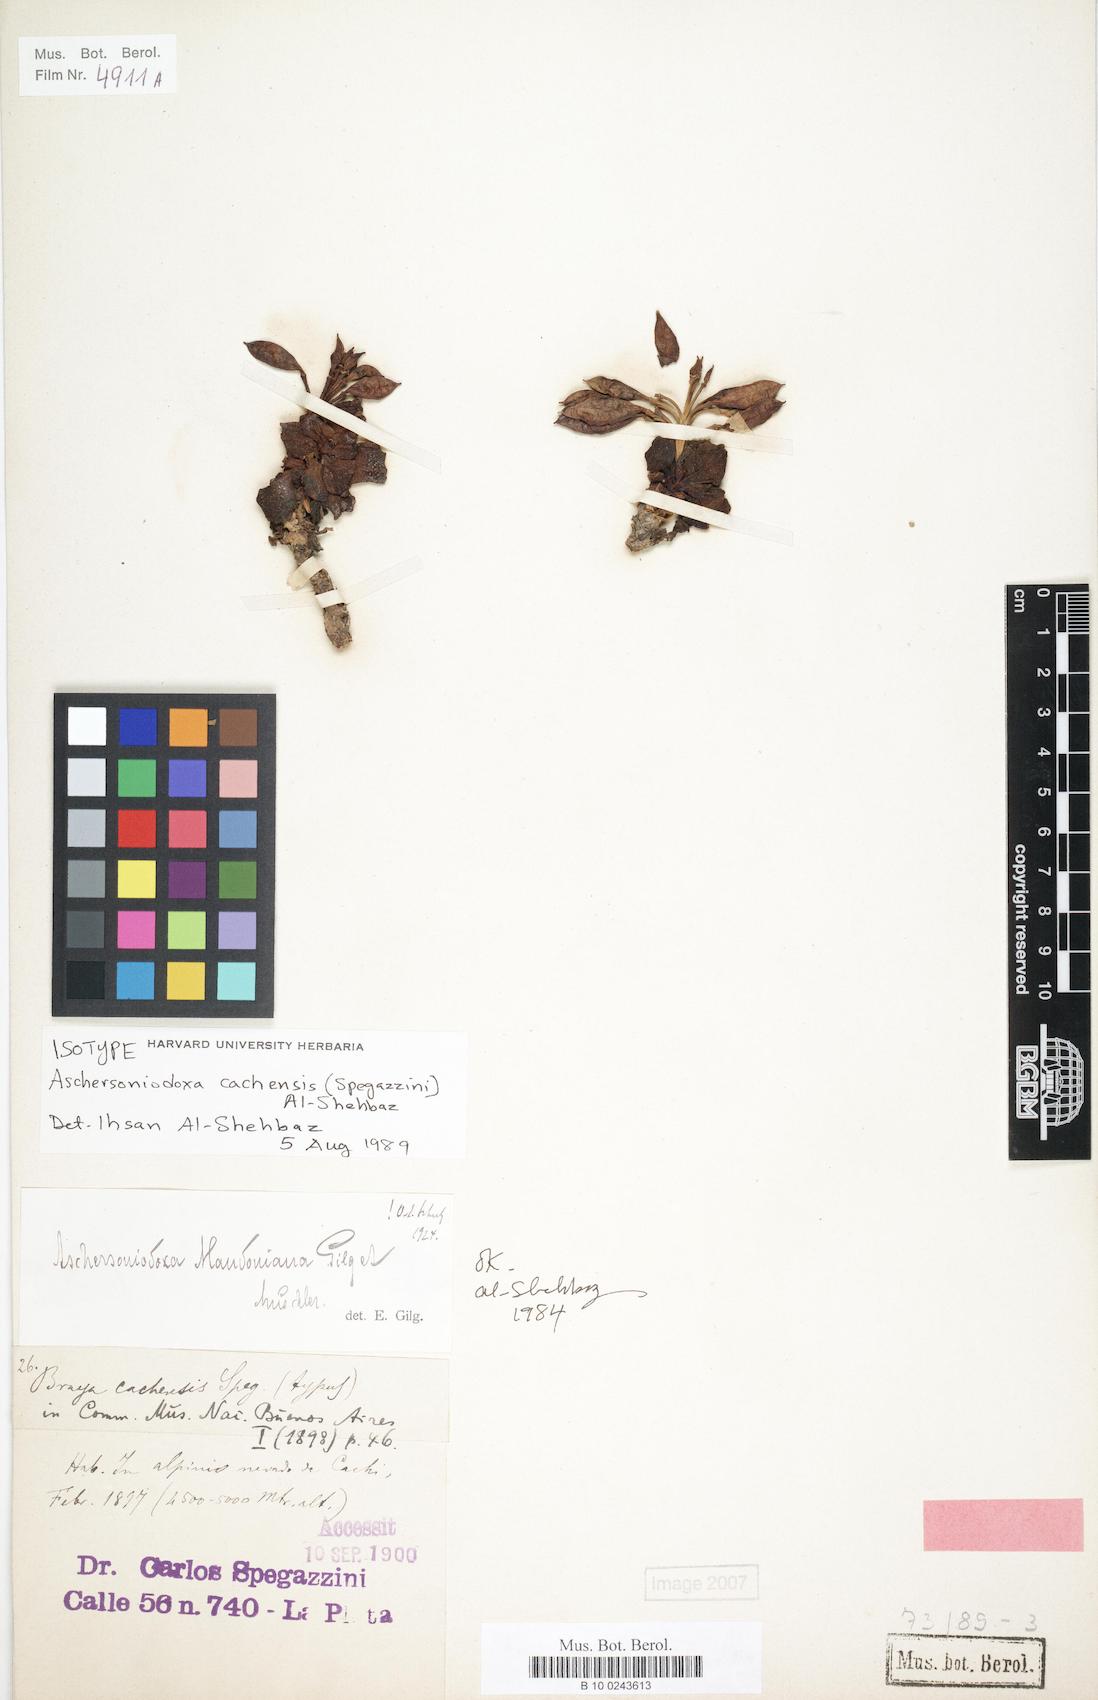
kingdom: Plantae
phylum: Tracheophyta
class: Magnoliopsida
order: Brassicales
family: Brassicaceae
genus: Aschersoniodoxa
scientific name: Aschersoniodoxa cachensis
